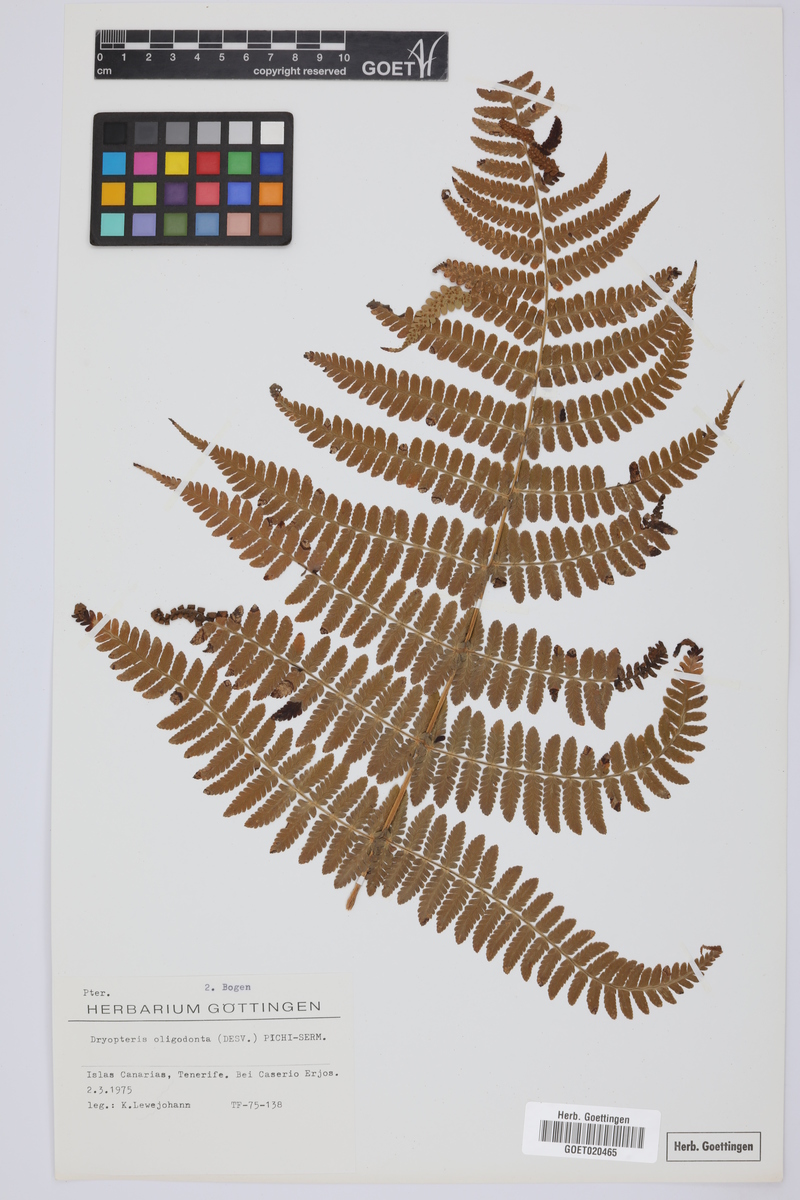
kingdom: Plantae
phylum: Tracheophyta
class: Polypodiopsida
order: Polypodiales
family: Dryopteridaceae
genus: Dryopteris
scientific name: Dryopteris oligodonta
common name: Canarian male-fern
